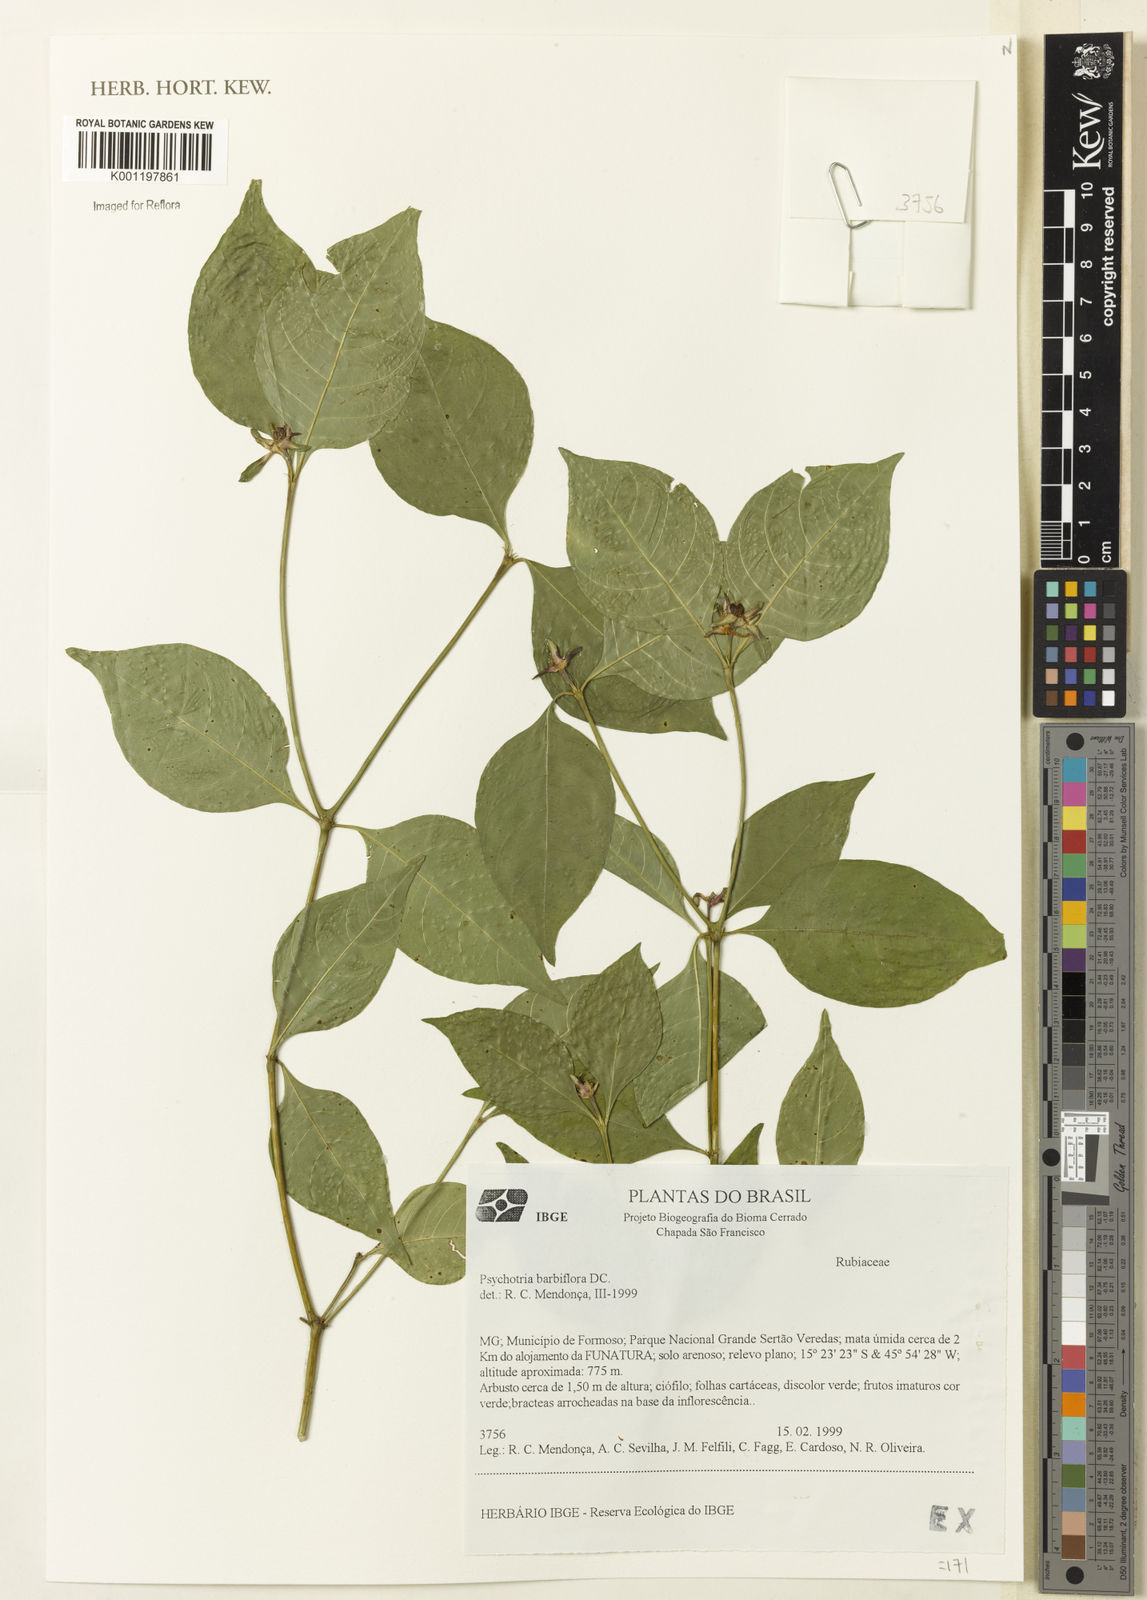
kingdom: Plantae
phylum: Tracheophyta
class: Magnoliopsida
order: Gentianales
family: Rubiaceae
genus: Psychotria
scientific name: Psychotria
